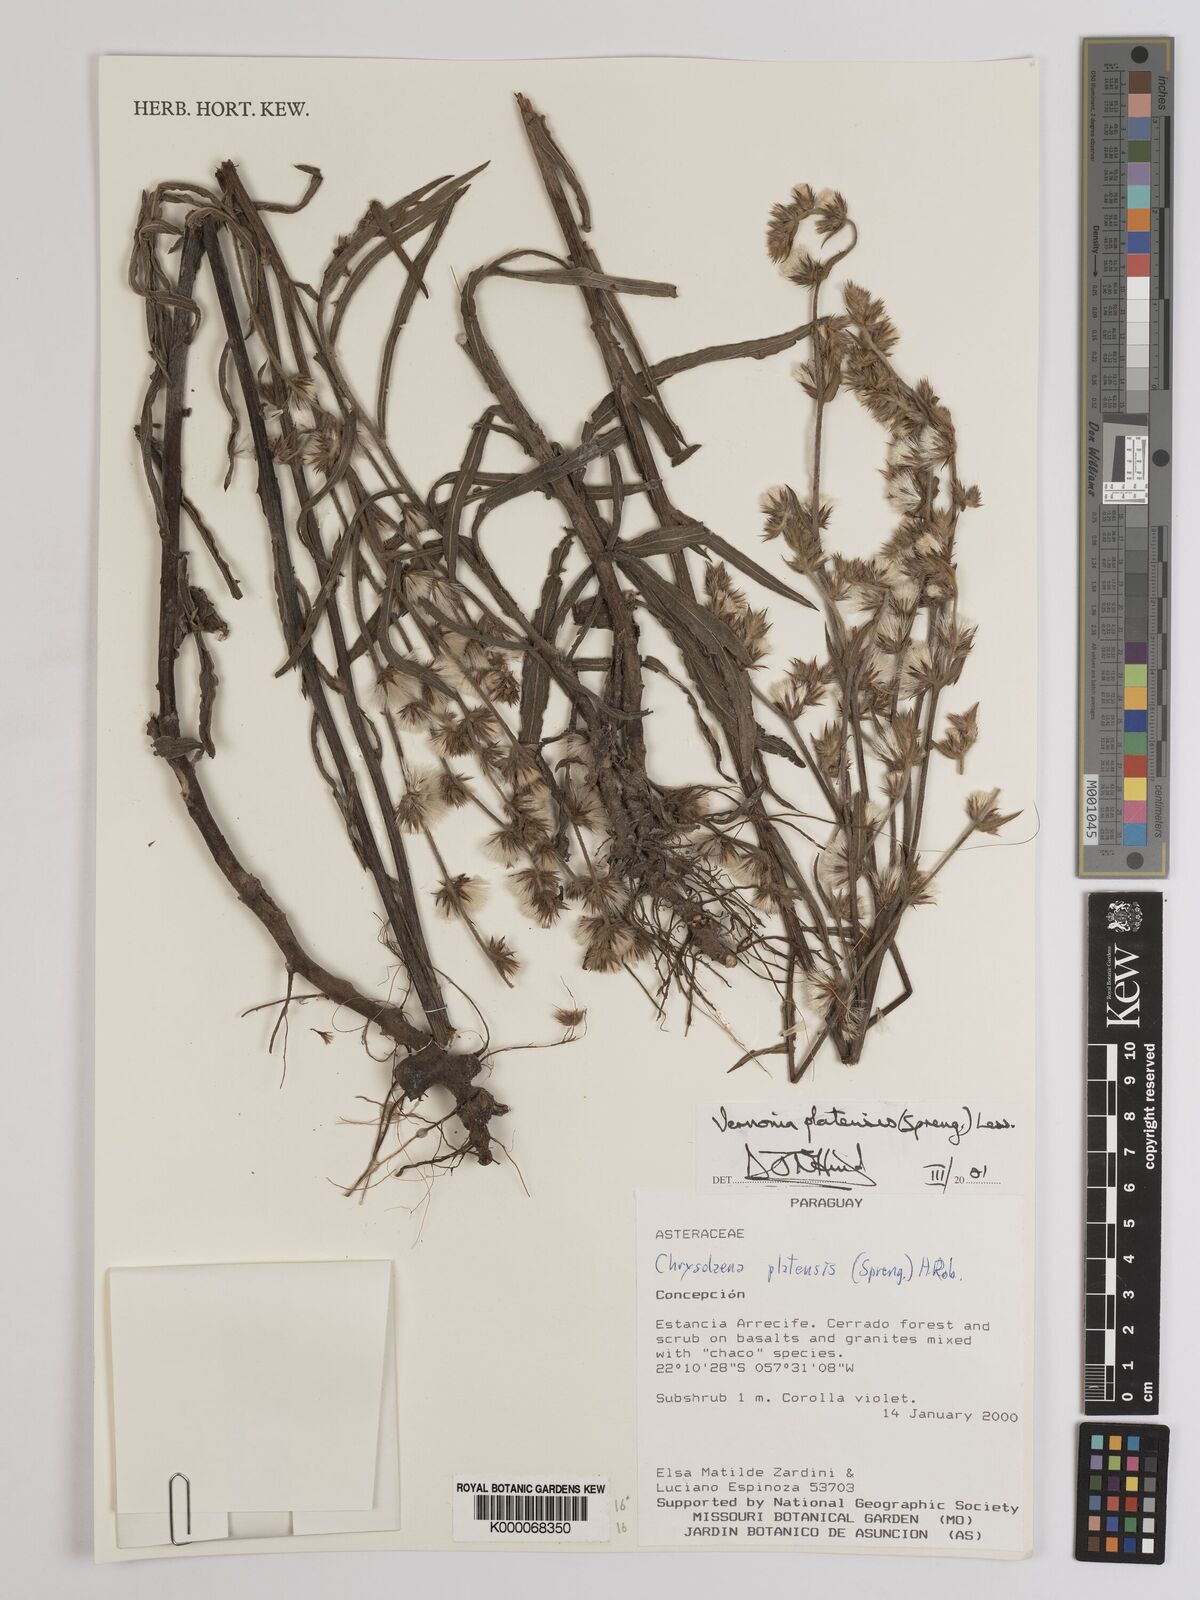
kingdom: Plantae
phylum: Tracheophyta
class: Magnoliopsida
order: Asterales
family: Asteraceae
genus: Chrysolaena
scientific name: Chrysolaena platensis
